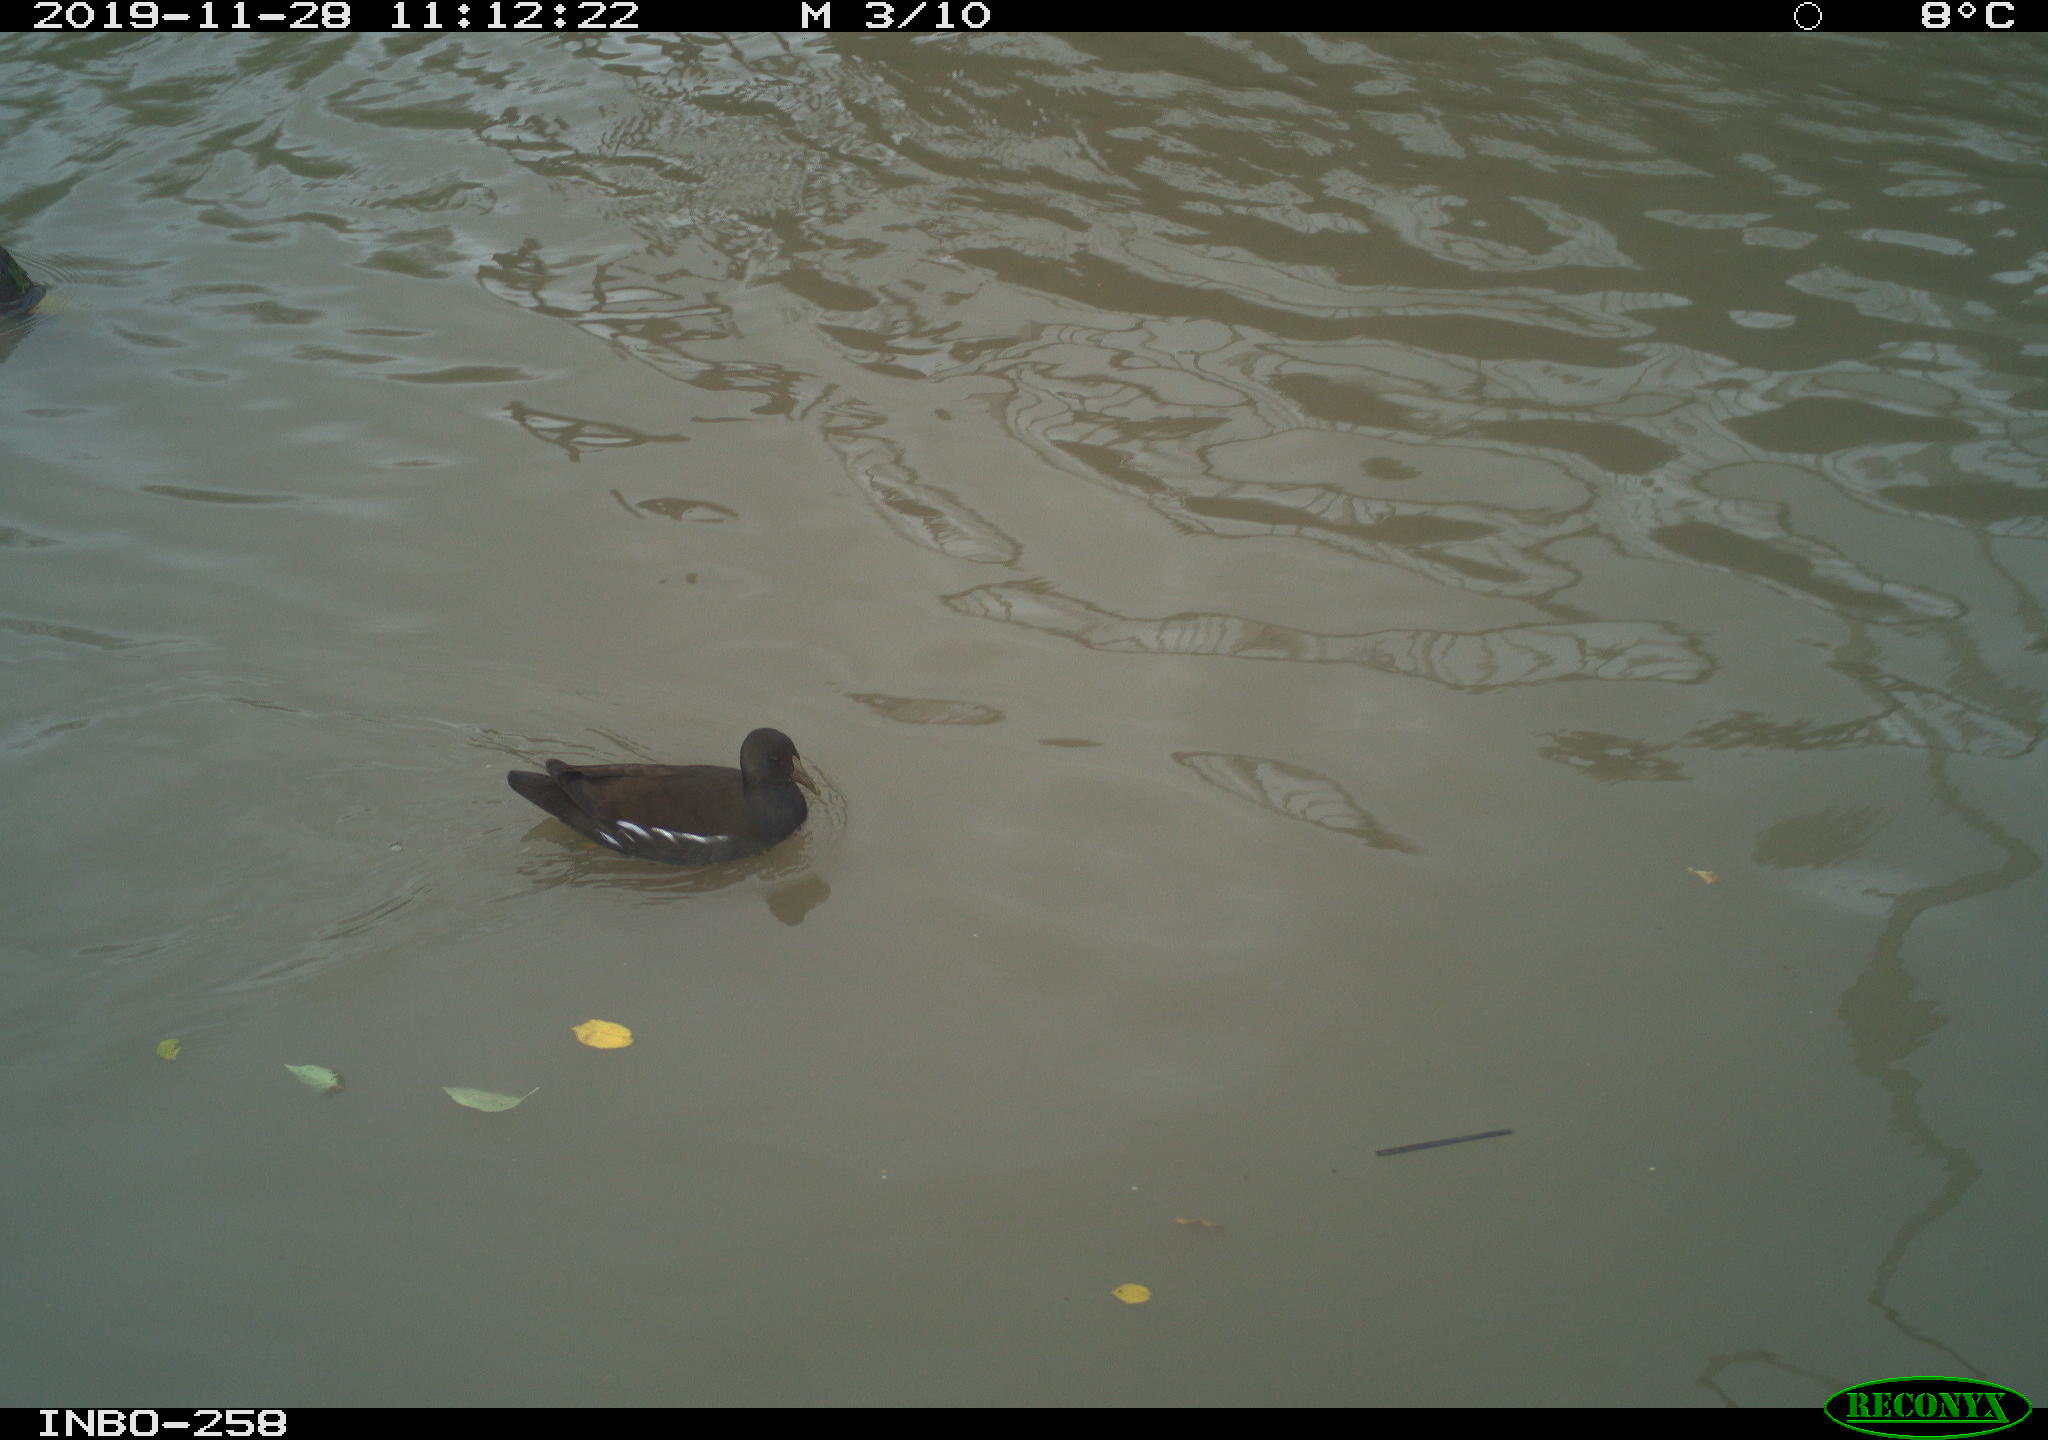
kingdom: Animalia
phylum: Chordata
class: Aves
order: Gruiformes
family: Rallidae
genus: Gallinula
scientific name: Gallinula chloropus
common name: Common moorhen
